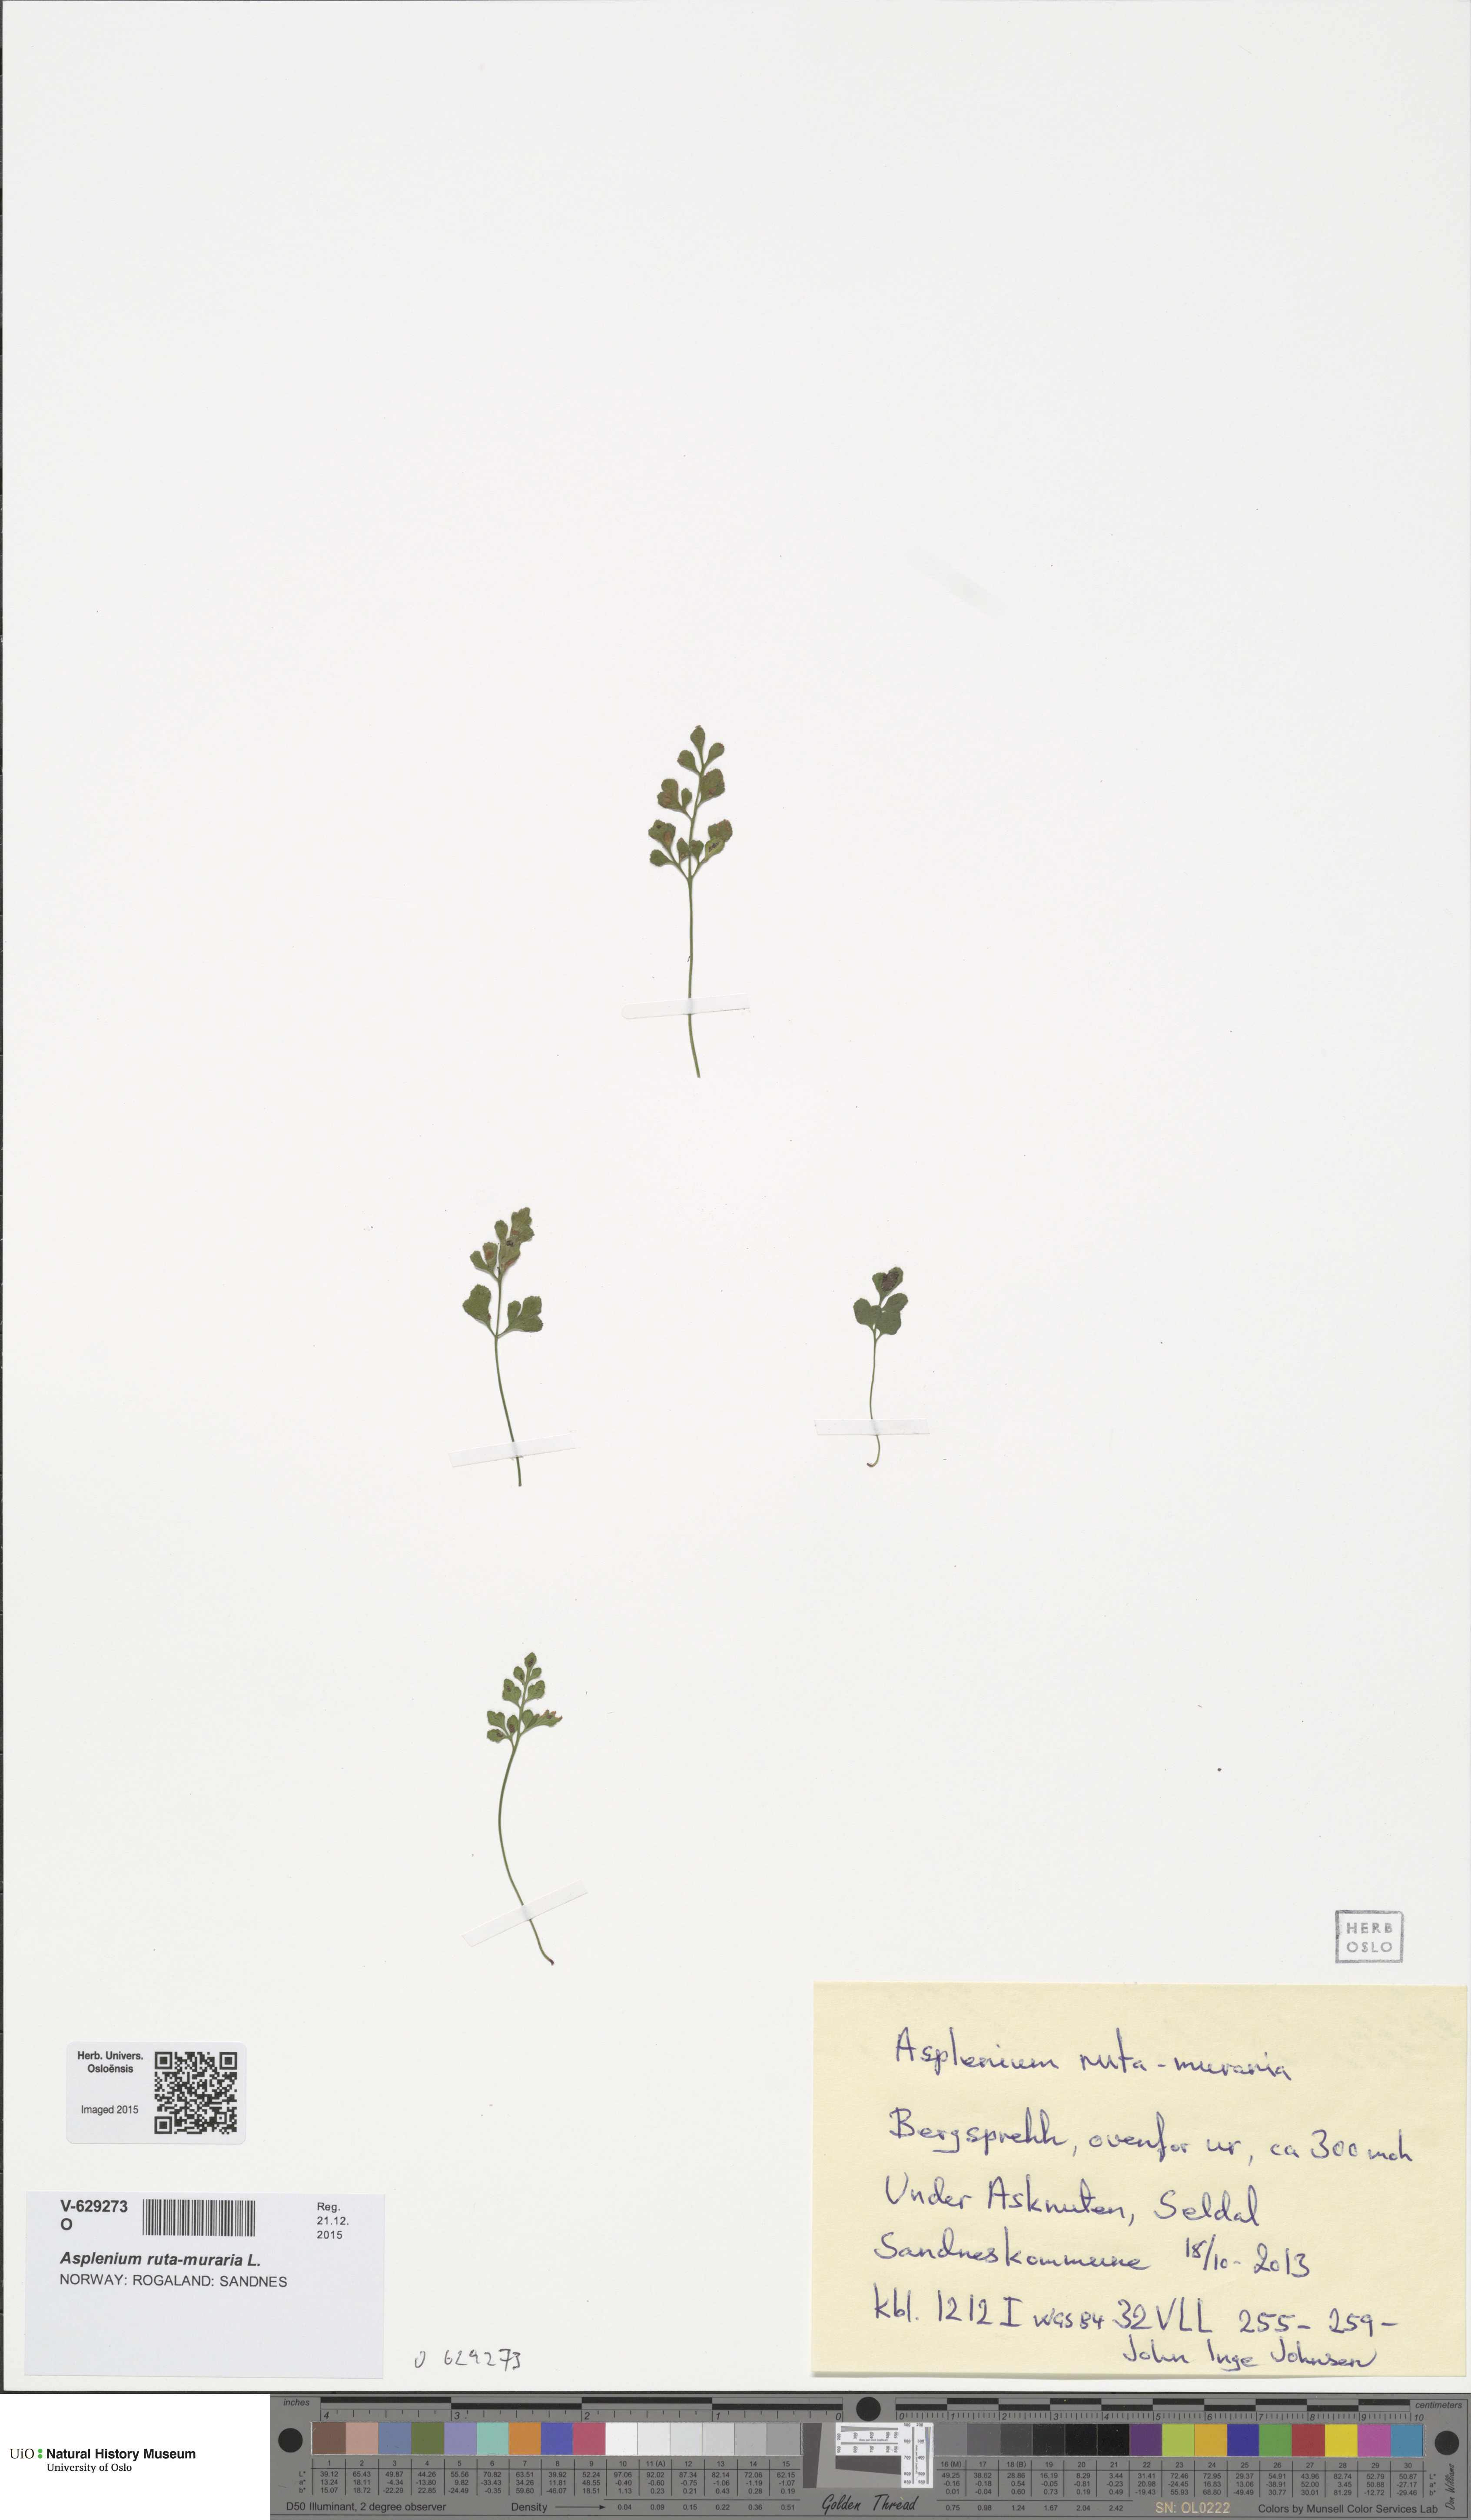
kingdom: Plantae
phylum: Tracheophyta
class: Polypodiopsida
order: Polypodiales
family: Aspleniaceae
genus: Asplenium
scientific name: Asplenium ruta-muraria
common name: Wall-rue
